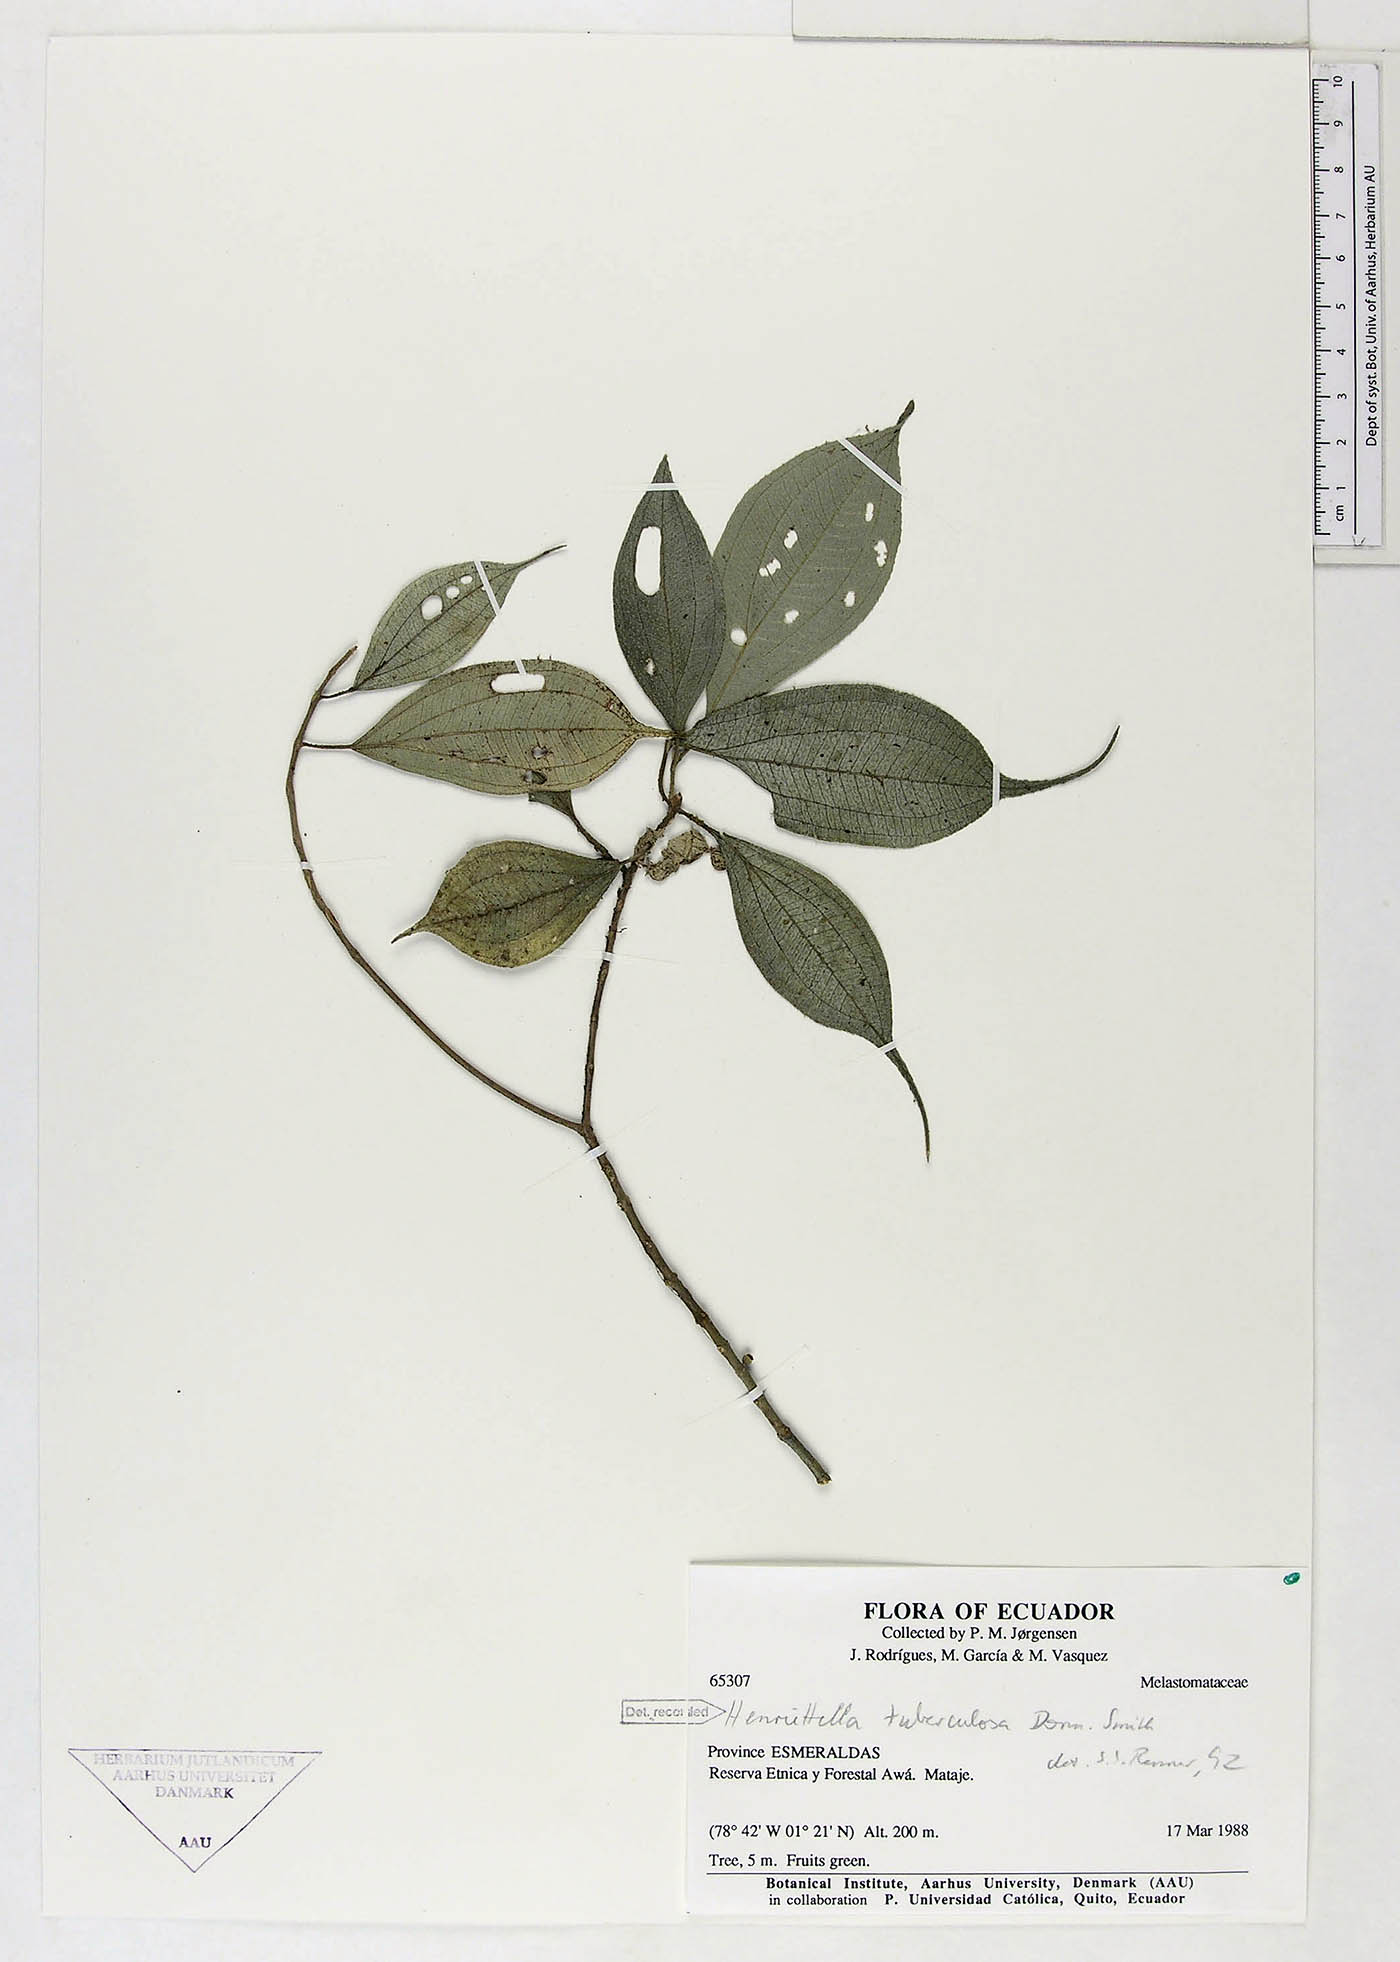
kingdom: Plantae
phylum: Tracheophyta
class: Magnoliopsida
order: Myrtales
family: Melastomataceae
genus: Henriettea
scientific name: Henriettea tuberculosa
